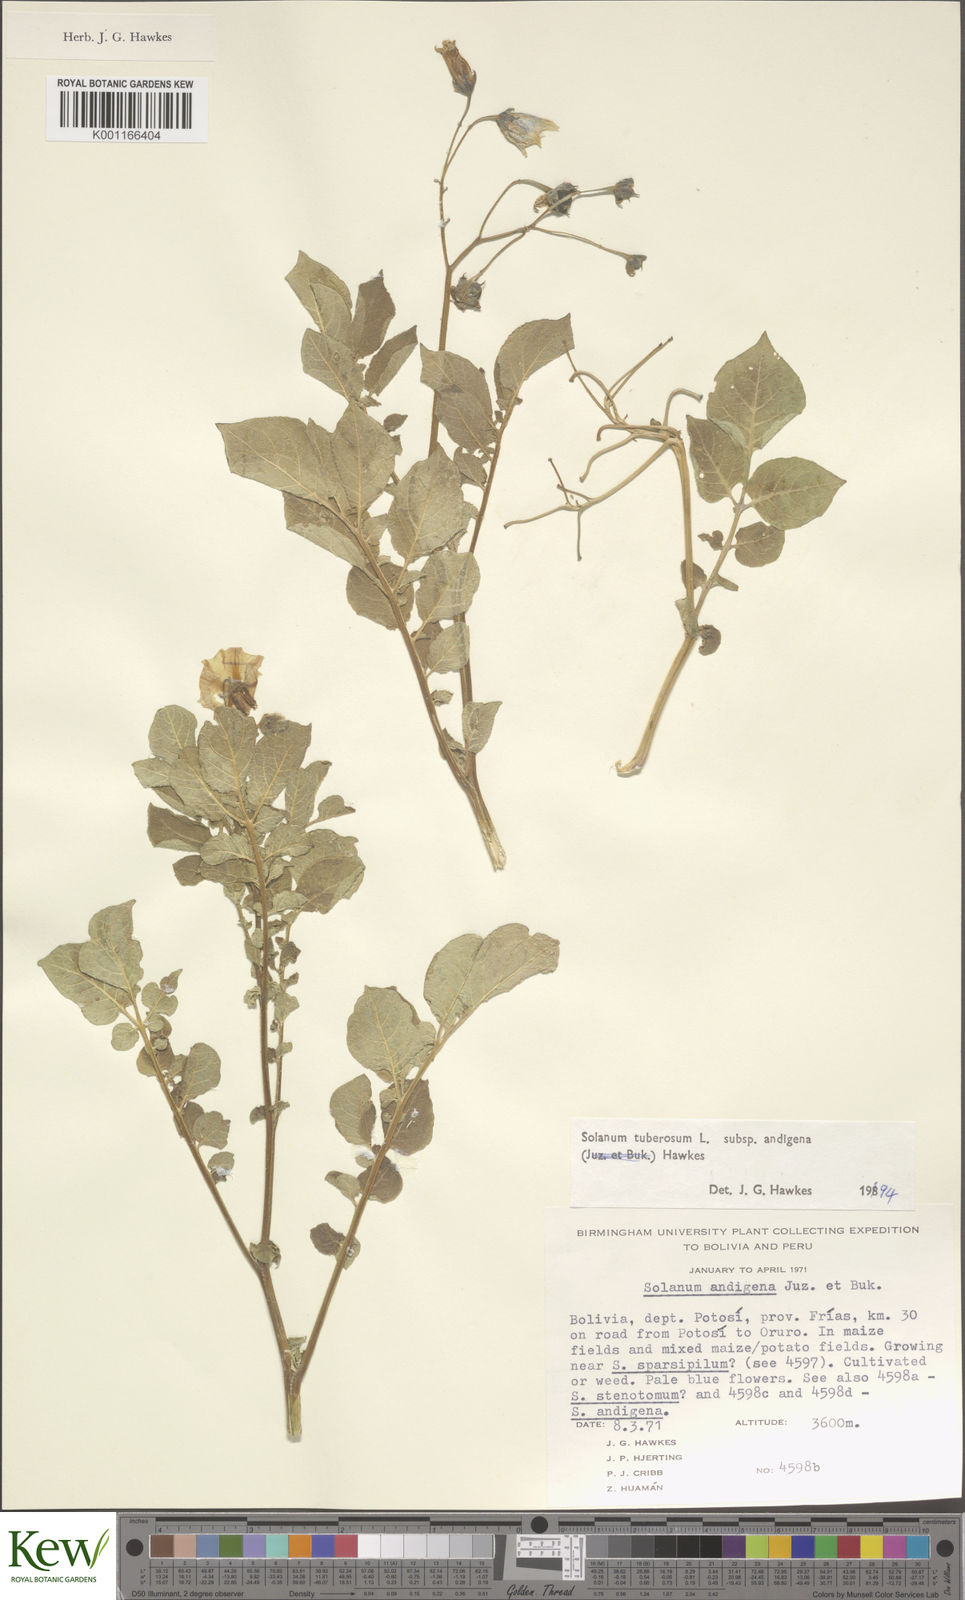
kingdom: Plantae
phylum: Tracheophyta
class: Magnoliopsida
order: Solanales
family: Solanaceae
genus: Solanum
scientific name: Solanum tuberosum
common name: Potato
